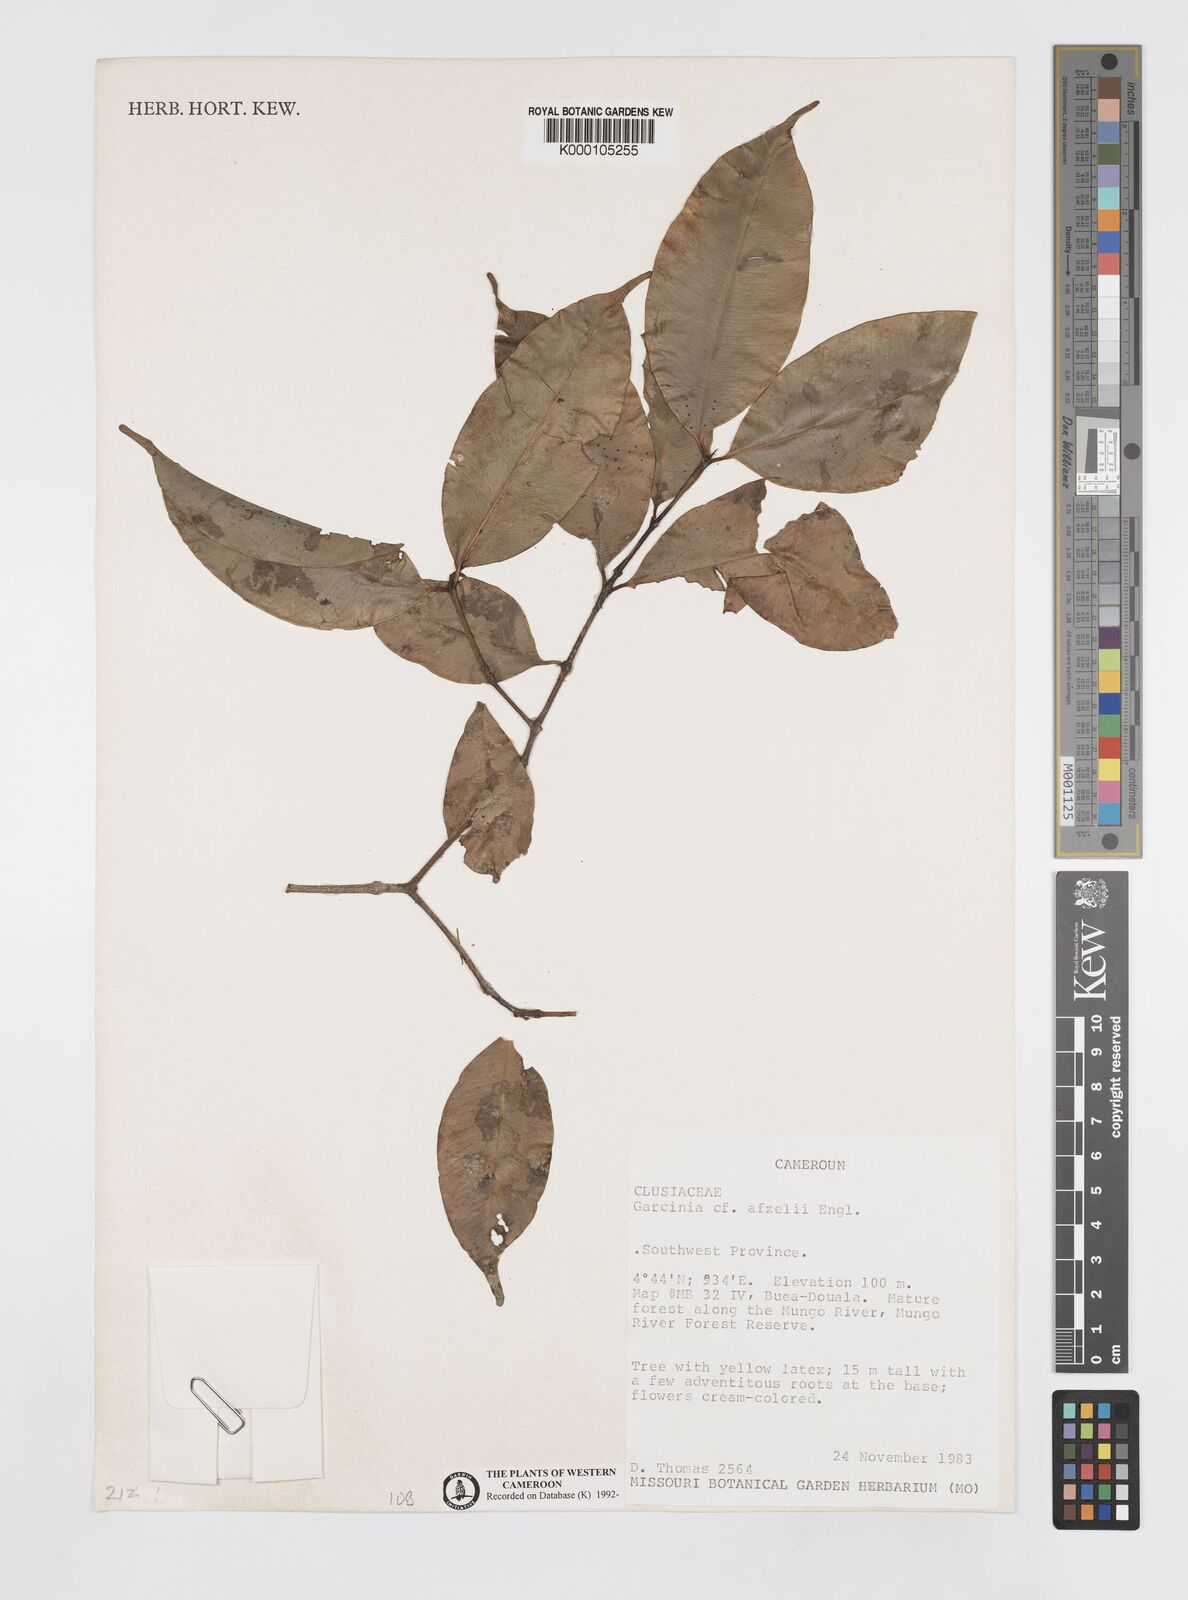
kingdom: Plantae
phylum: Tracheophyta
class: Magnoliopsida
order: Malpighiales
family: Clusiaceae
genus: Garcinia
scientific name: Garcinia afzelii
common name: Bitter-kola
